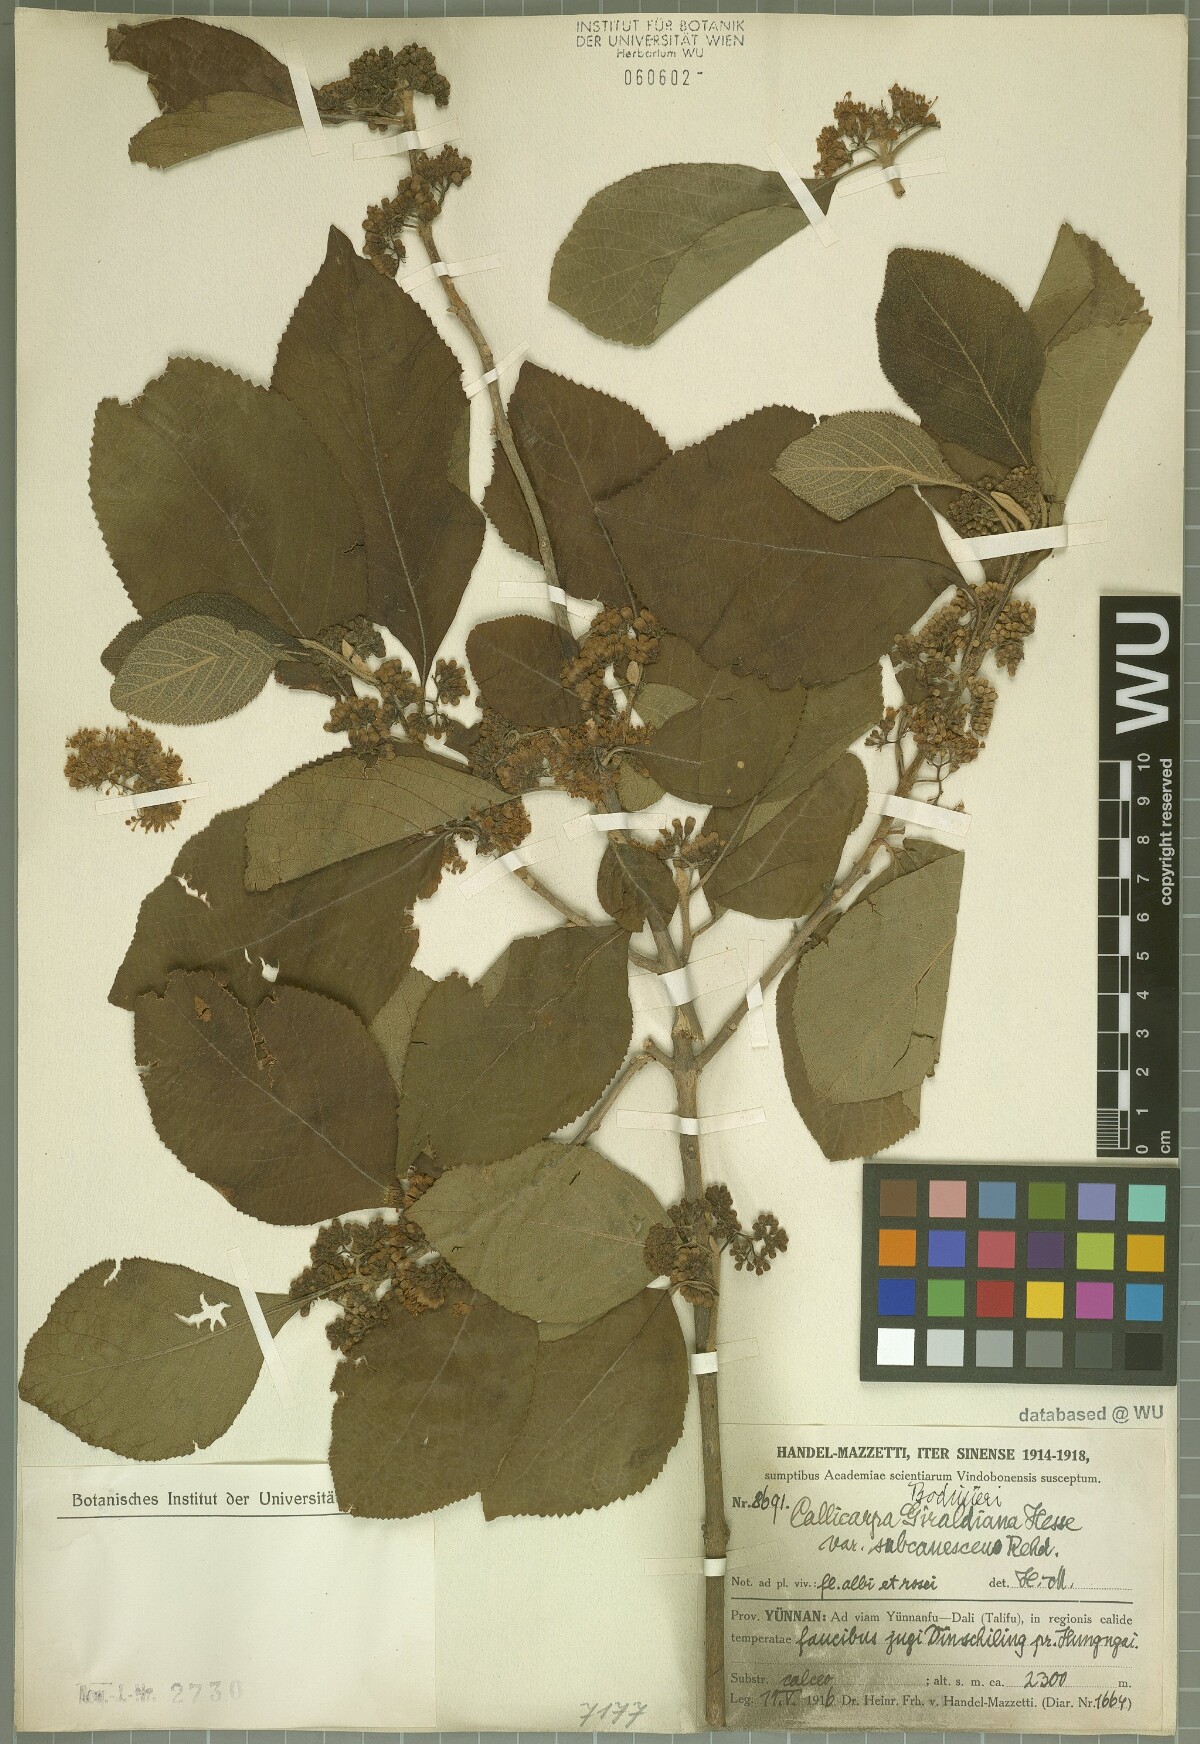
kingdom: Plantae
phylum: Tracheophyta
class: Magnoliopsida
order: Lamiales
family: Lamiaceae
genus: Callicarpa
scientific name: Callicarpa bodinieri
